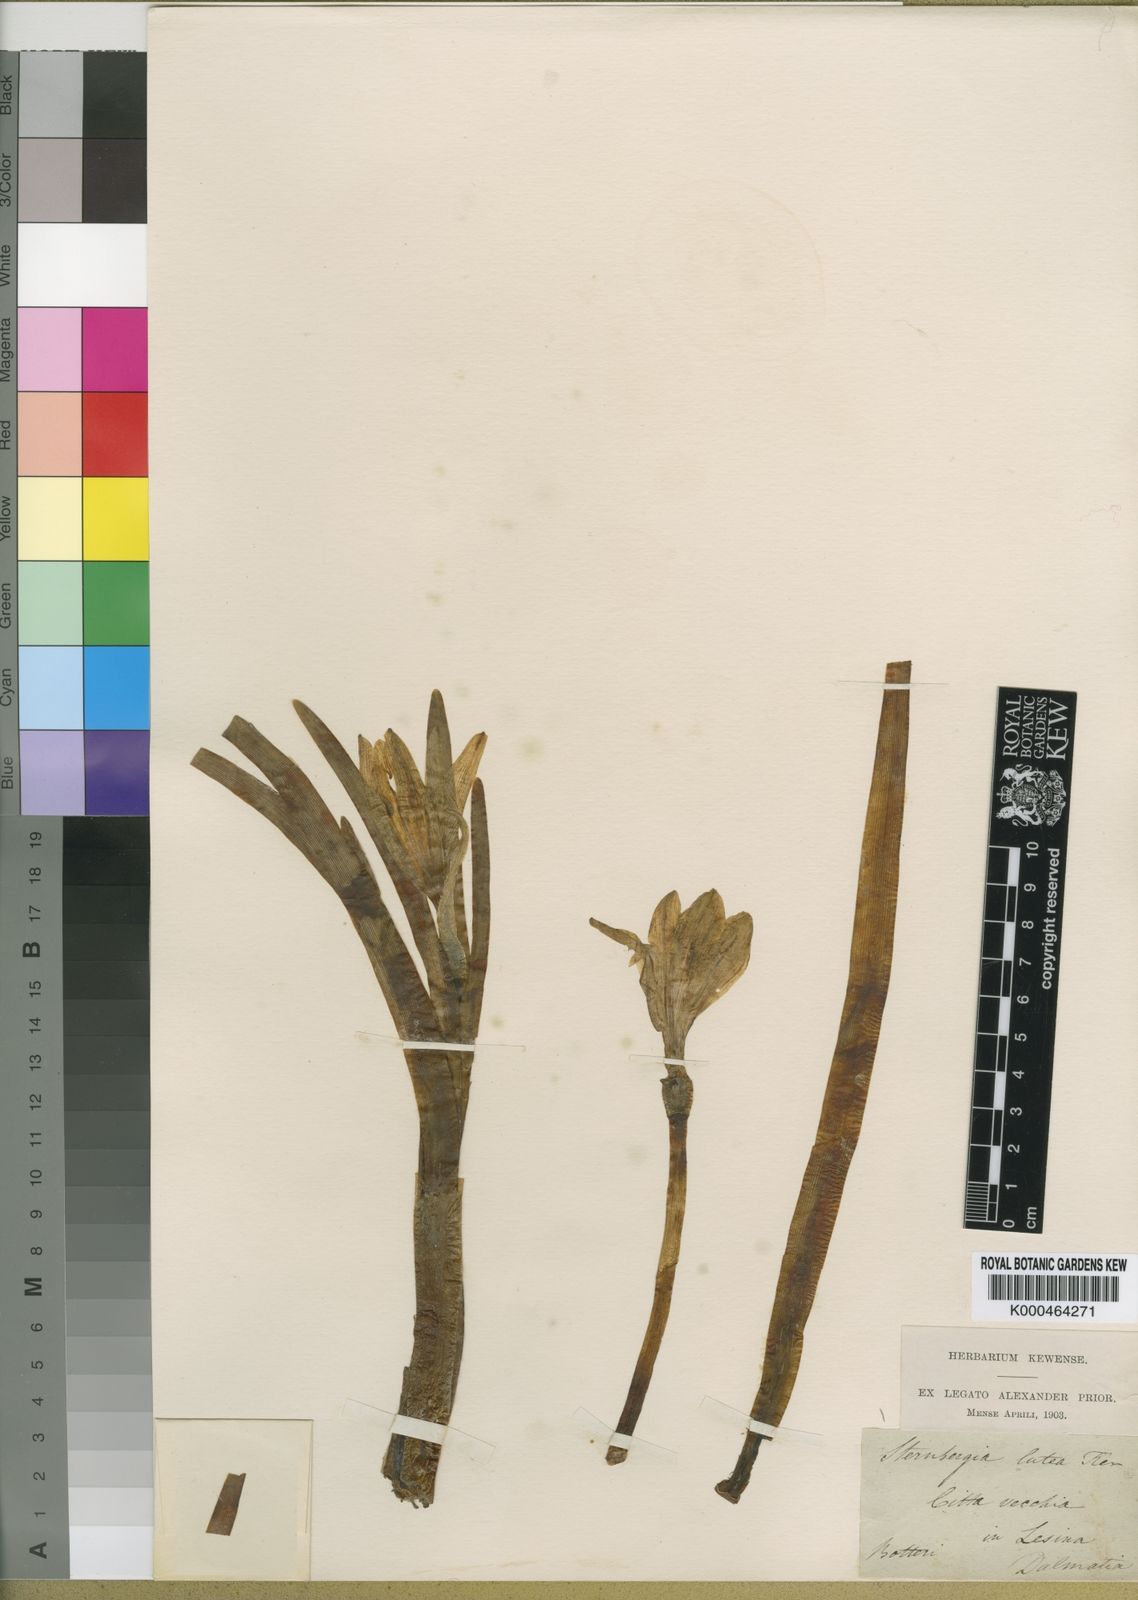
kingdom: Plantae
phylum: Tracheophyta
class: Liliopsida
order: Asparagales
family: Amaryllidaceae
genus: Sternbergia
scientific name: Sternbergia
